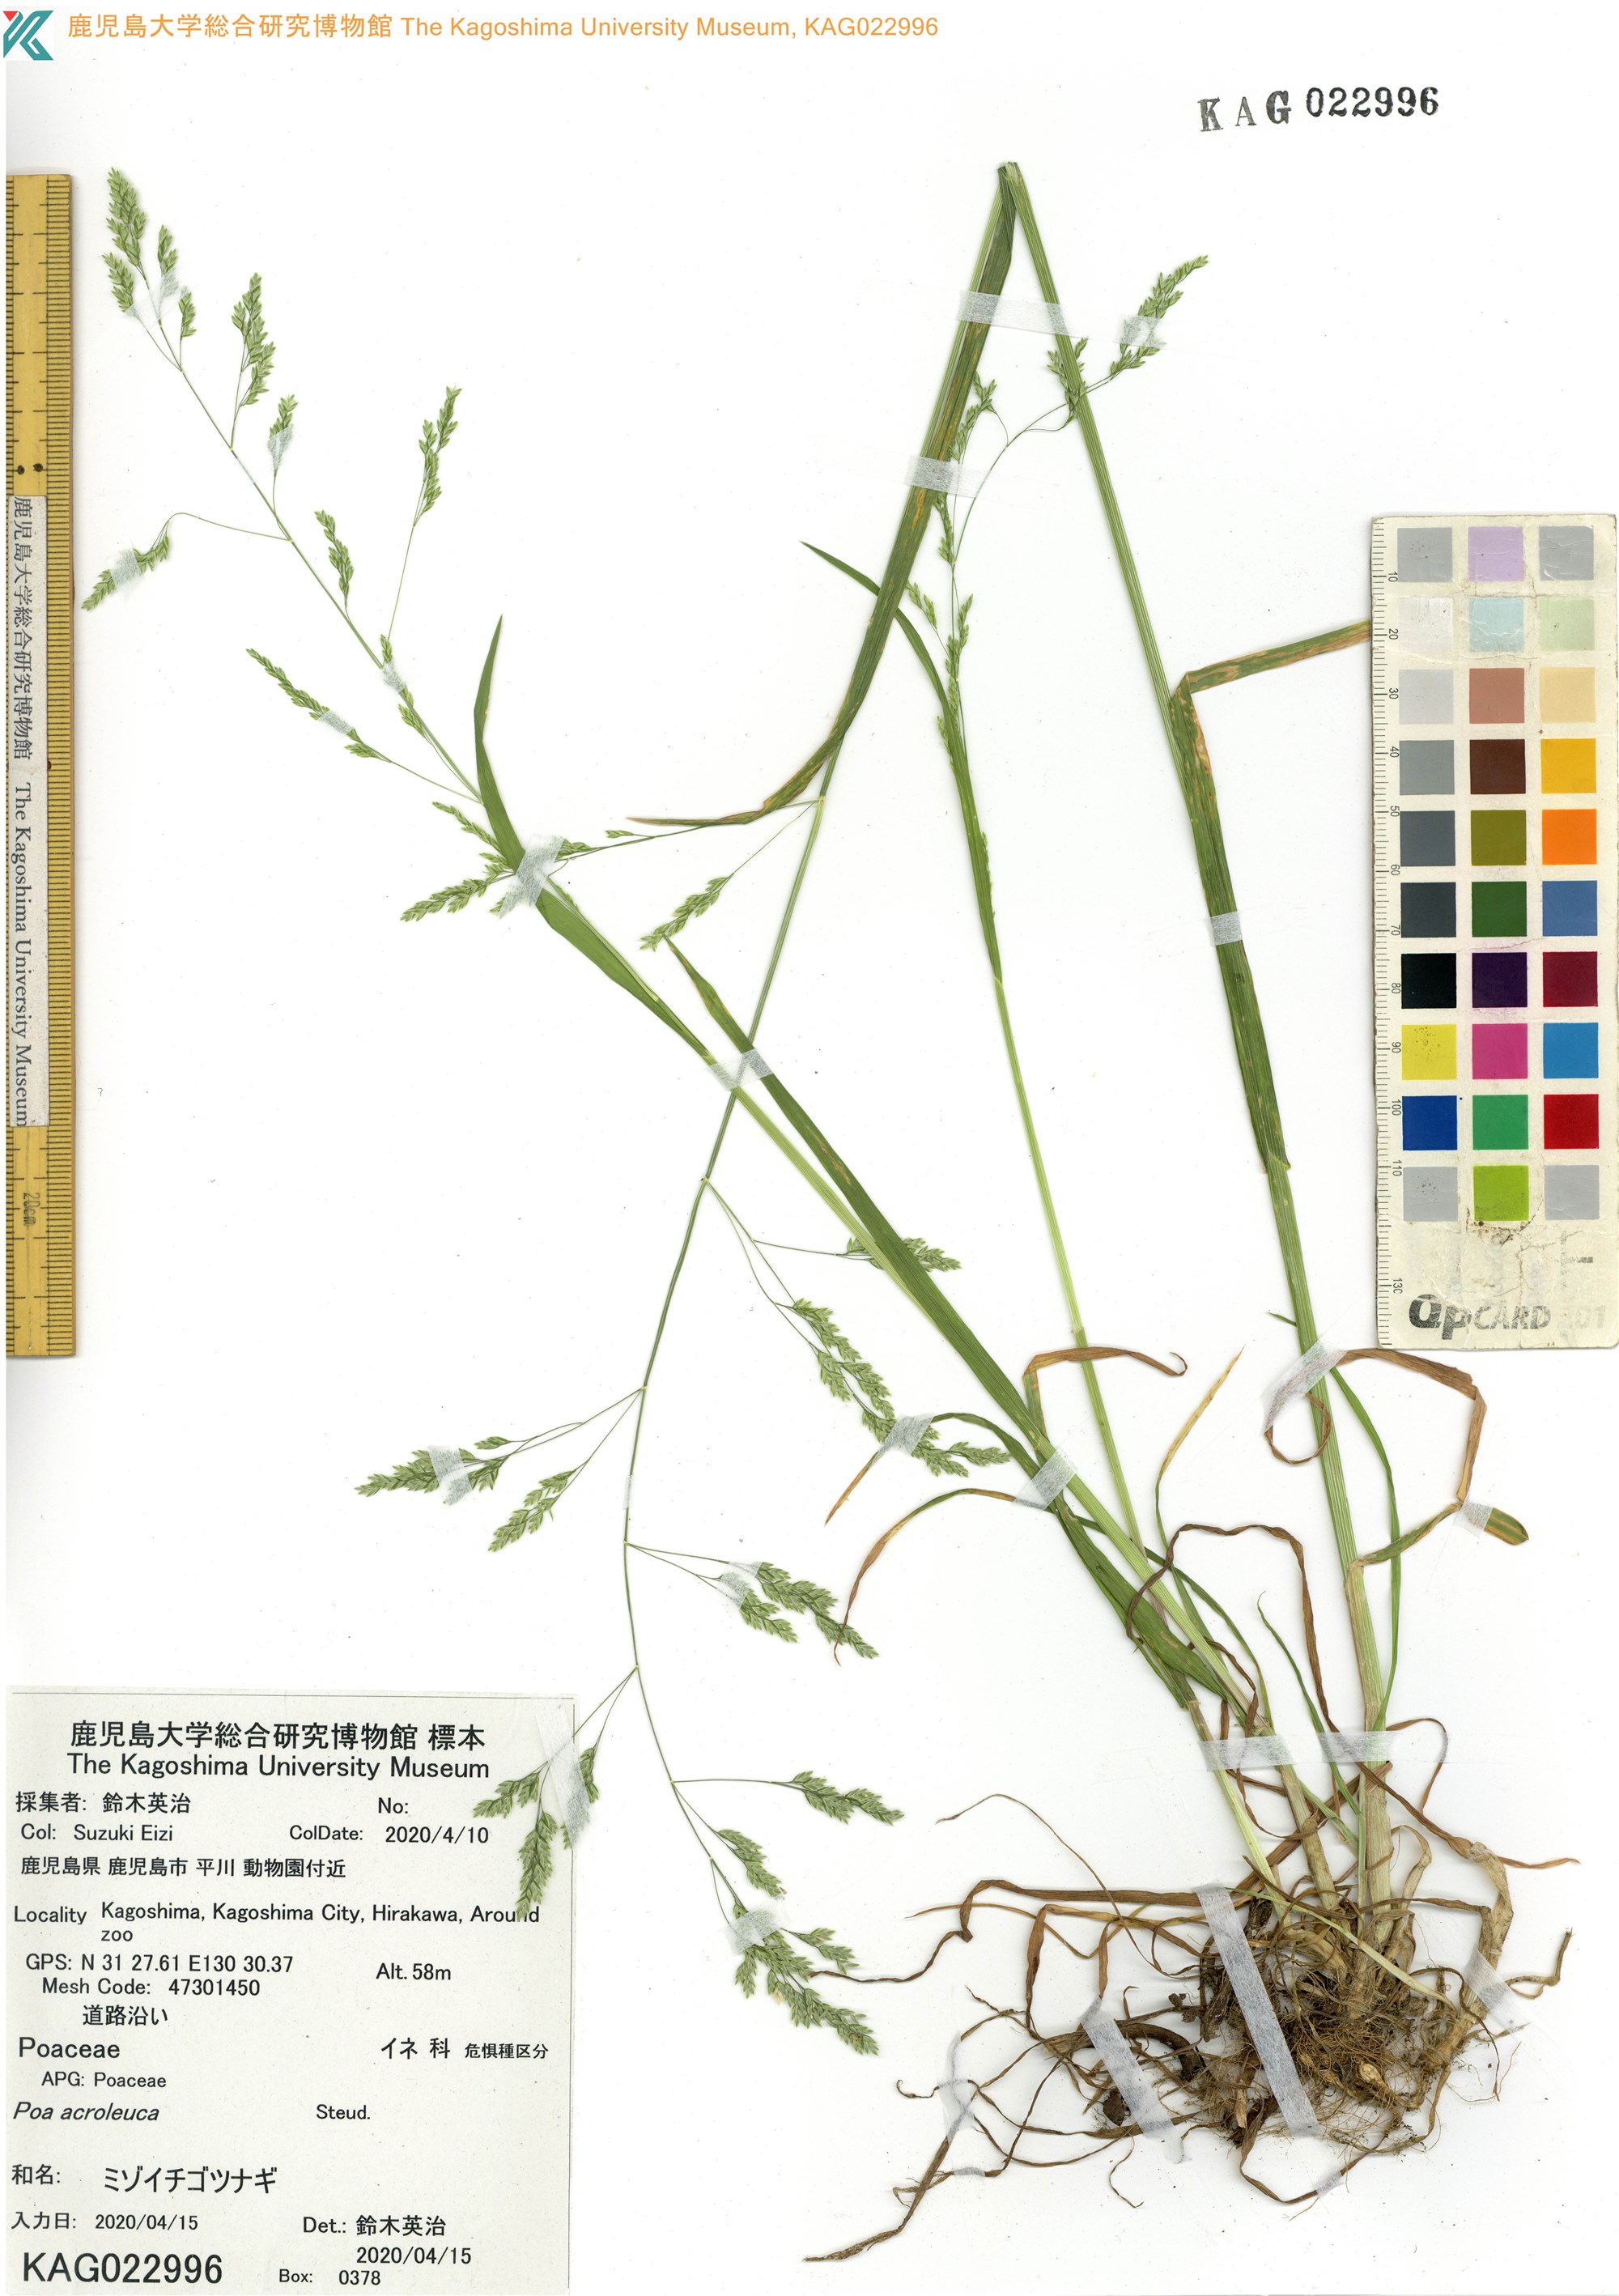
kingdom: Plantae
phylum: Tracheophyta
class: Liliopsida
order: Poales
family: Poaceae
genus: Poa
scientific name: Poa acroleuca
